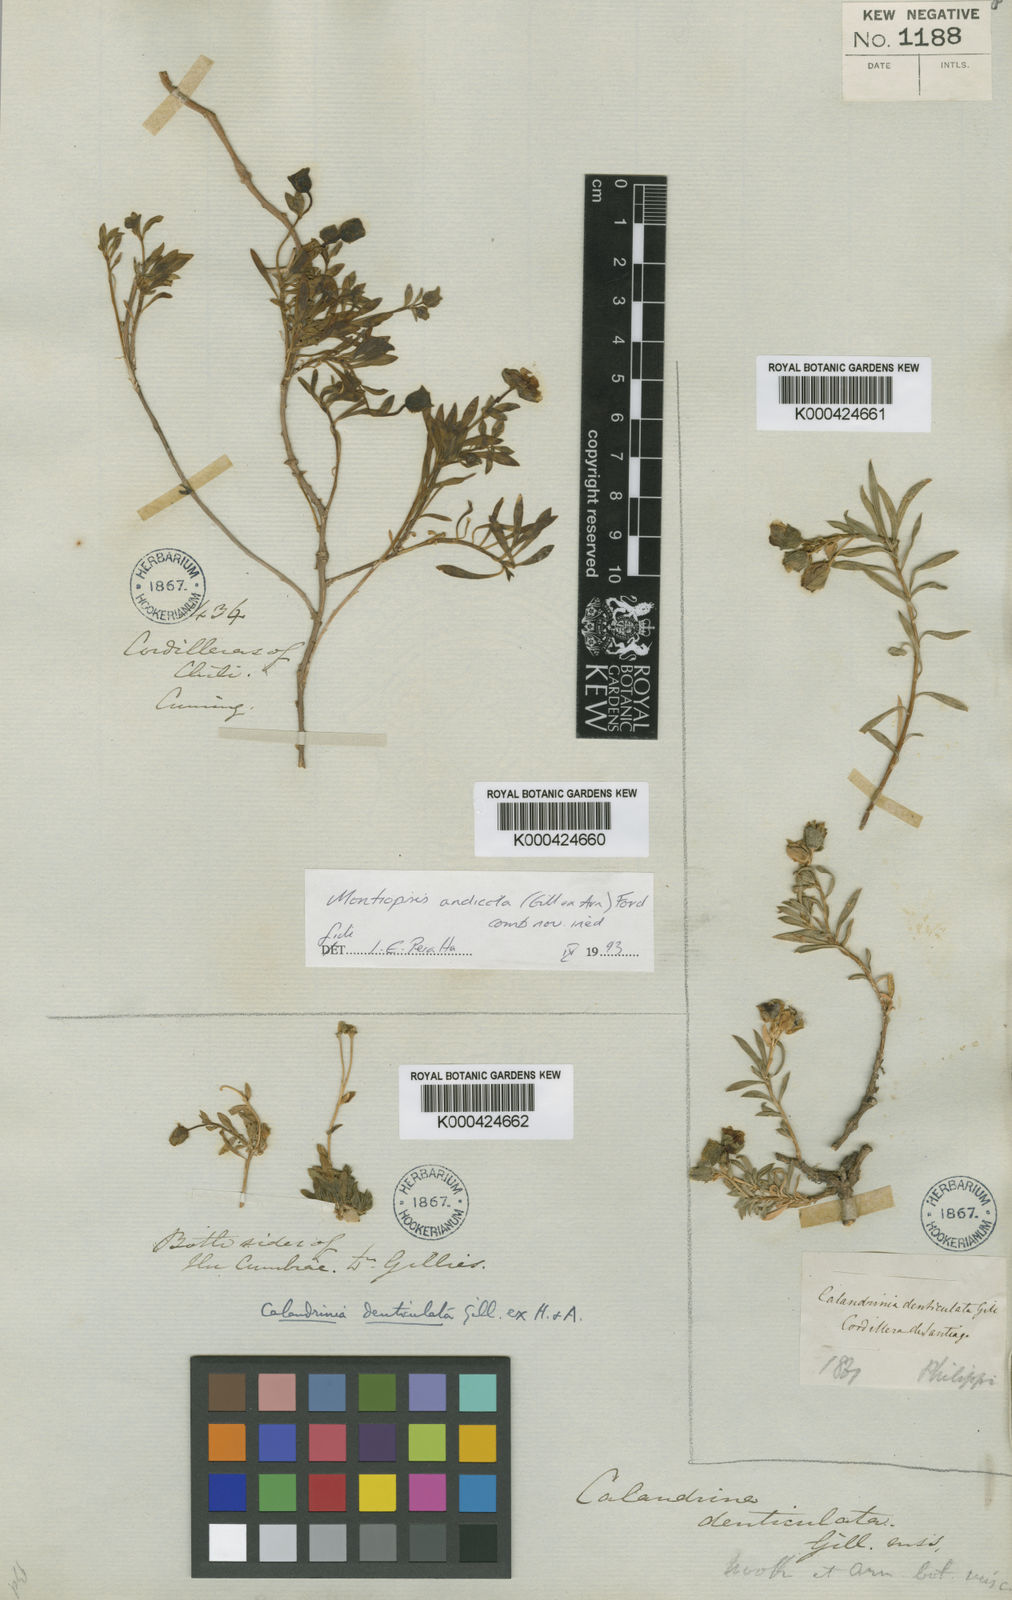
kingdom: Plantae
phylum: Tracheophyta
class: Magnoliopsida
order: Caryophyllales
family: Montiaceae
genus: Montiopsis
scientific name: Montiopsis andicola
